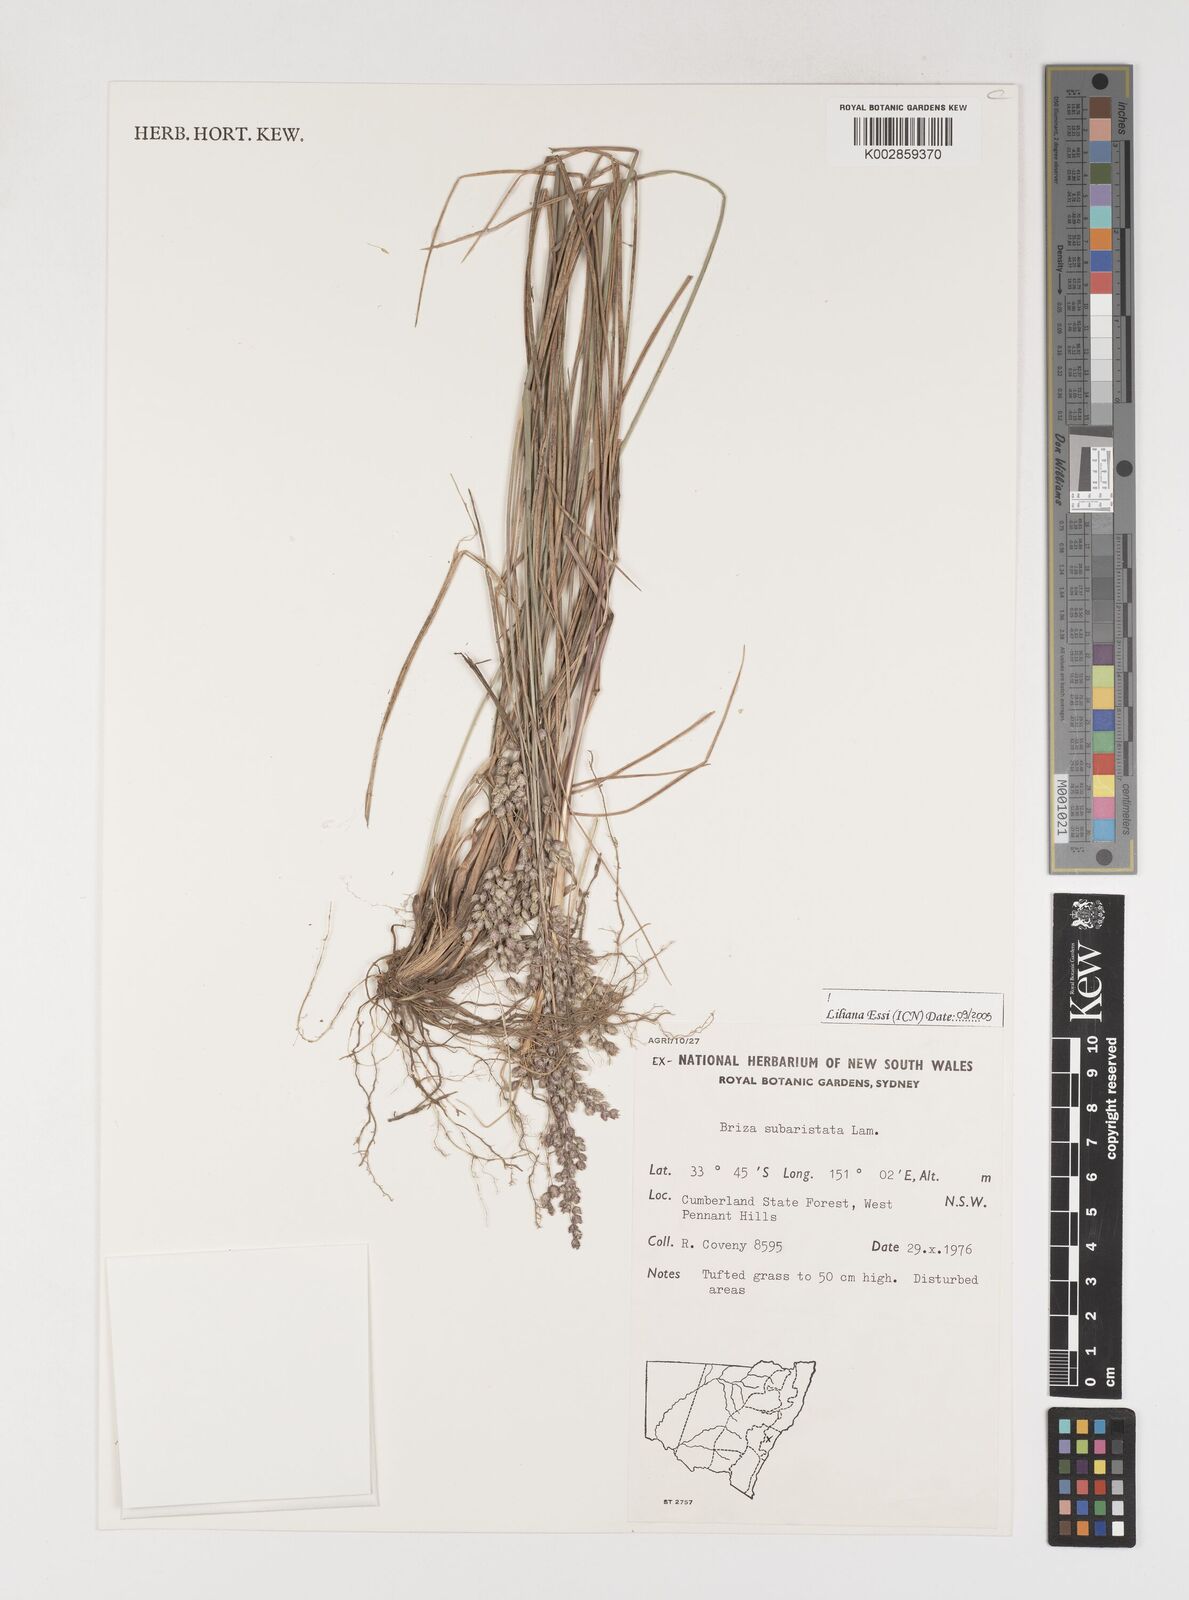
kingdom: Plantae
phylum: Tracheophyta
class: Liliopsida
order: Poales
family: Poaceae
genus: Chascolytrum
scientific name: Chascolytrum subaristatum
